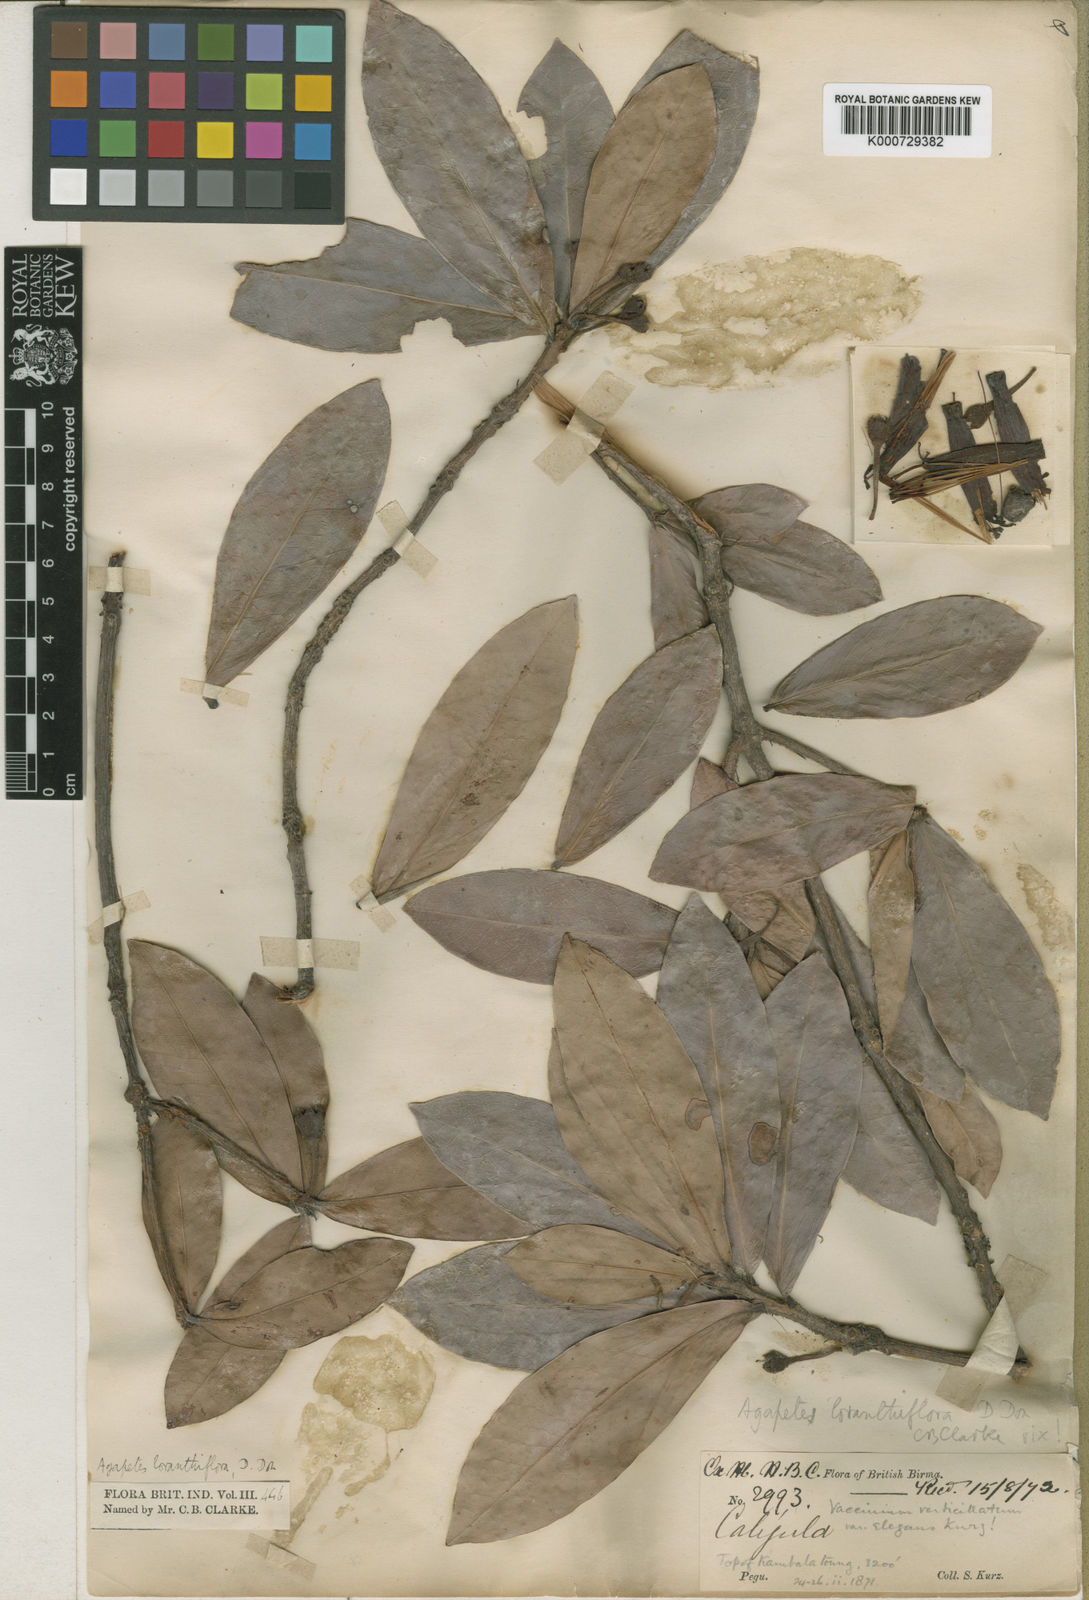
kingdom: Plantae
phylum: Tracheophyta
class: Magnoliopsida
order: Ericales
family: Ericaceae
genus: Agapetes
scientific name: Agapetes variegata
